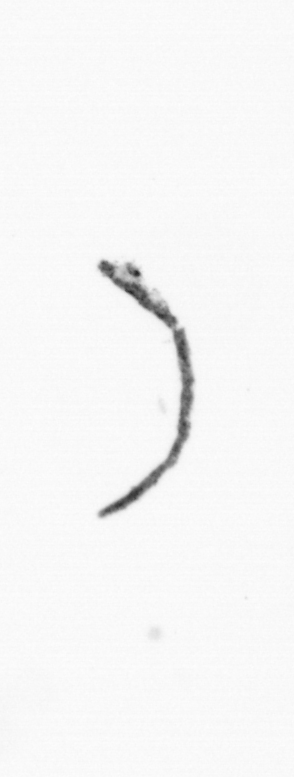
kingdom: Chromista
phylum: Ochrophyta
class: Bacillariophyceae
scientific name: Bacillariophyceae
